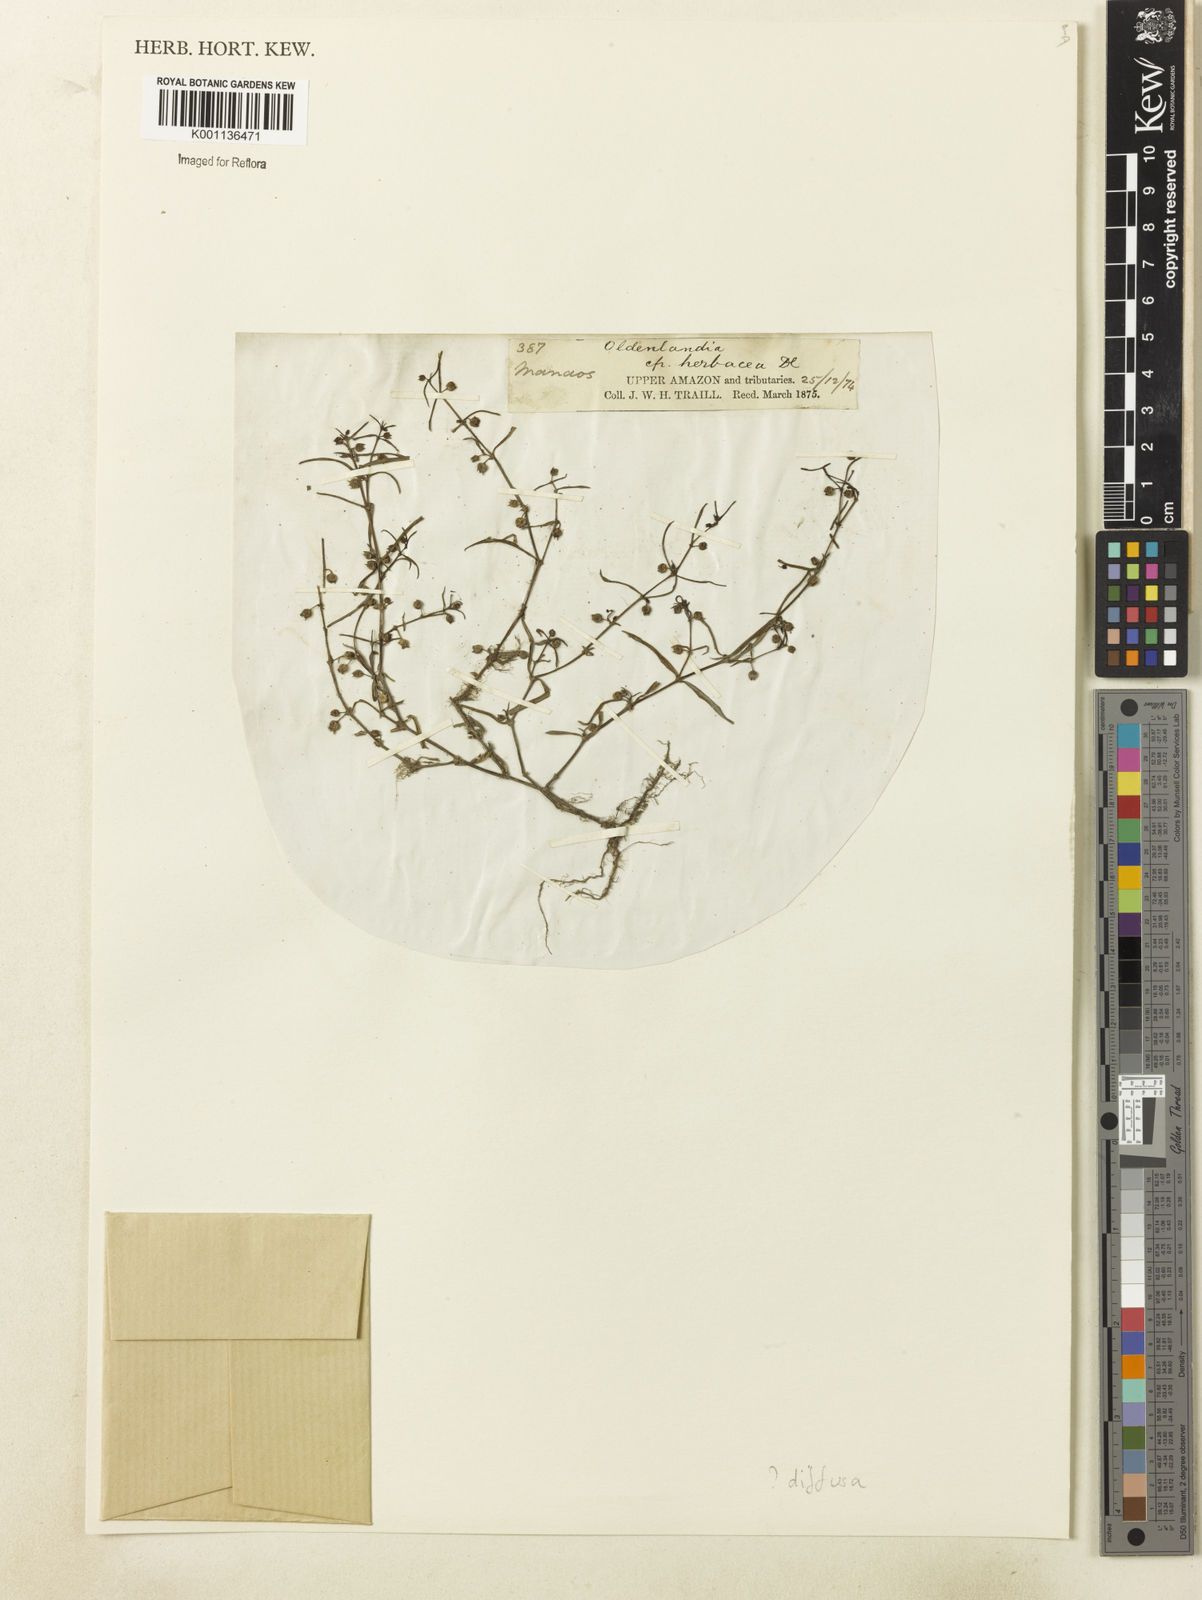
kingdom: Plantae
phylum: Tracheophyta
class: Magnoliopsida
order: Gentianales
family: Rubiaceae
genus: Scleromitrion
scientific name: Scleromitrion diffusum
